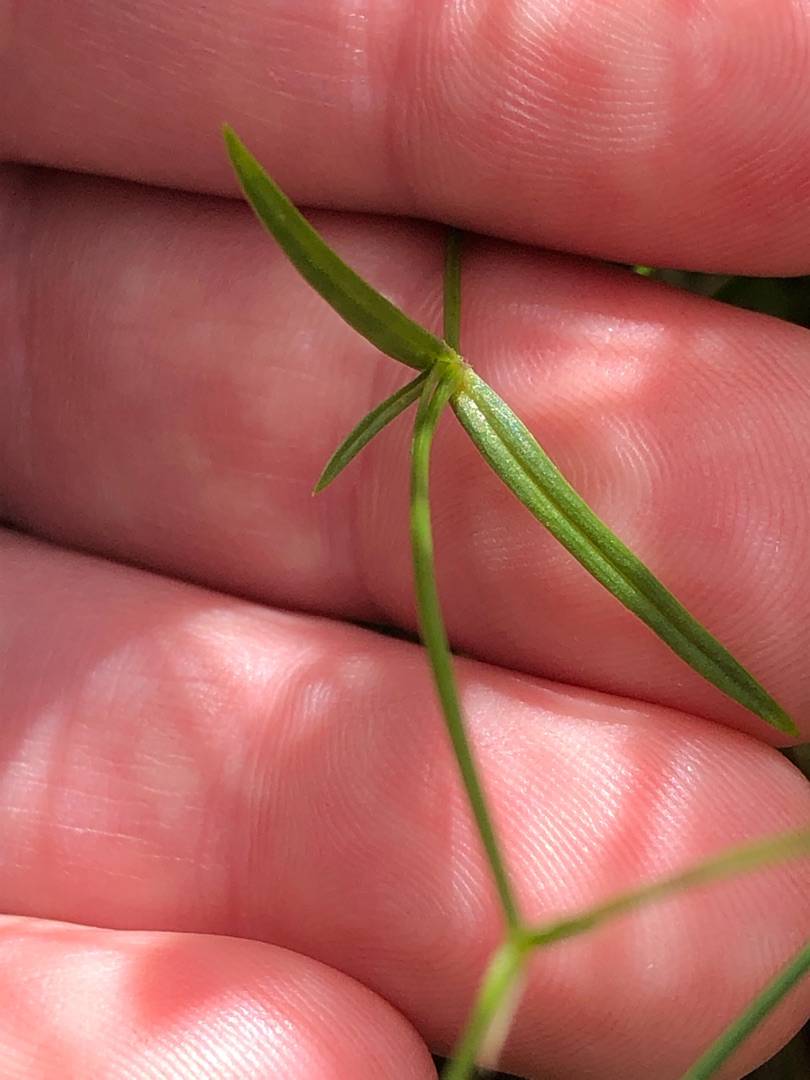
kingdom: Plantae
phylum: Tracheophyta
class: Magnoliopsida
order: Caryophyllales
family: Caryophyllaceae
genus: Stellaria
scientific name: Stellaria graminea
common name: Græsbladet fladstjerne
